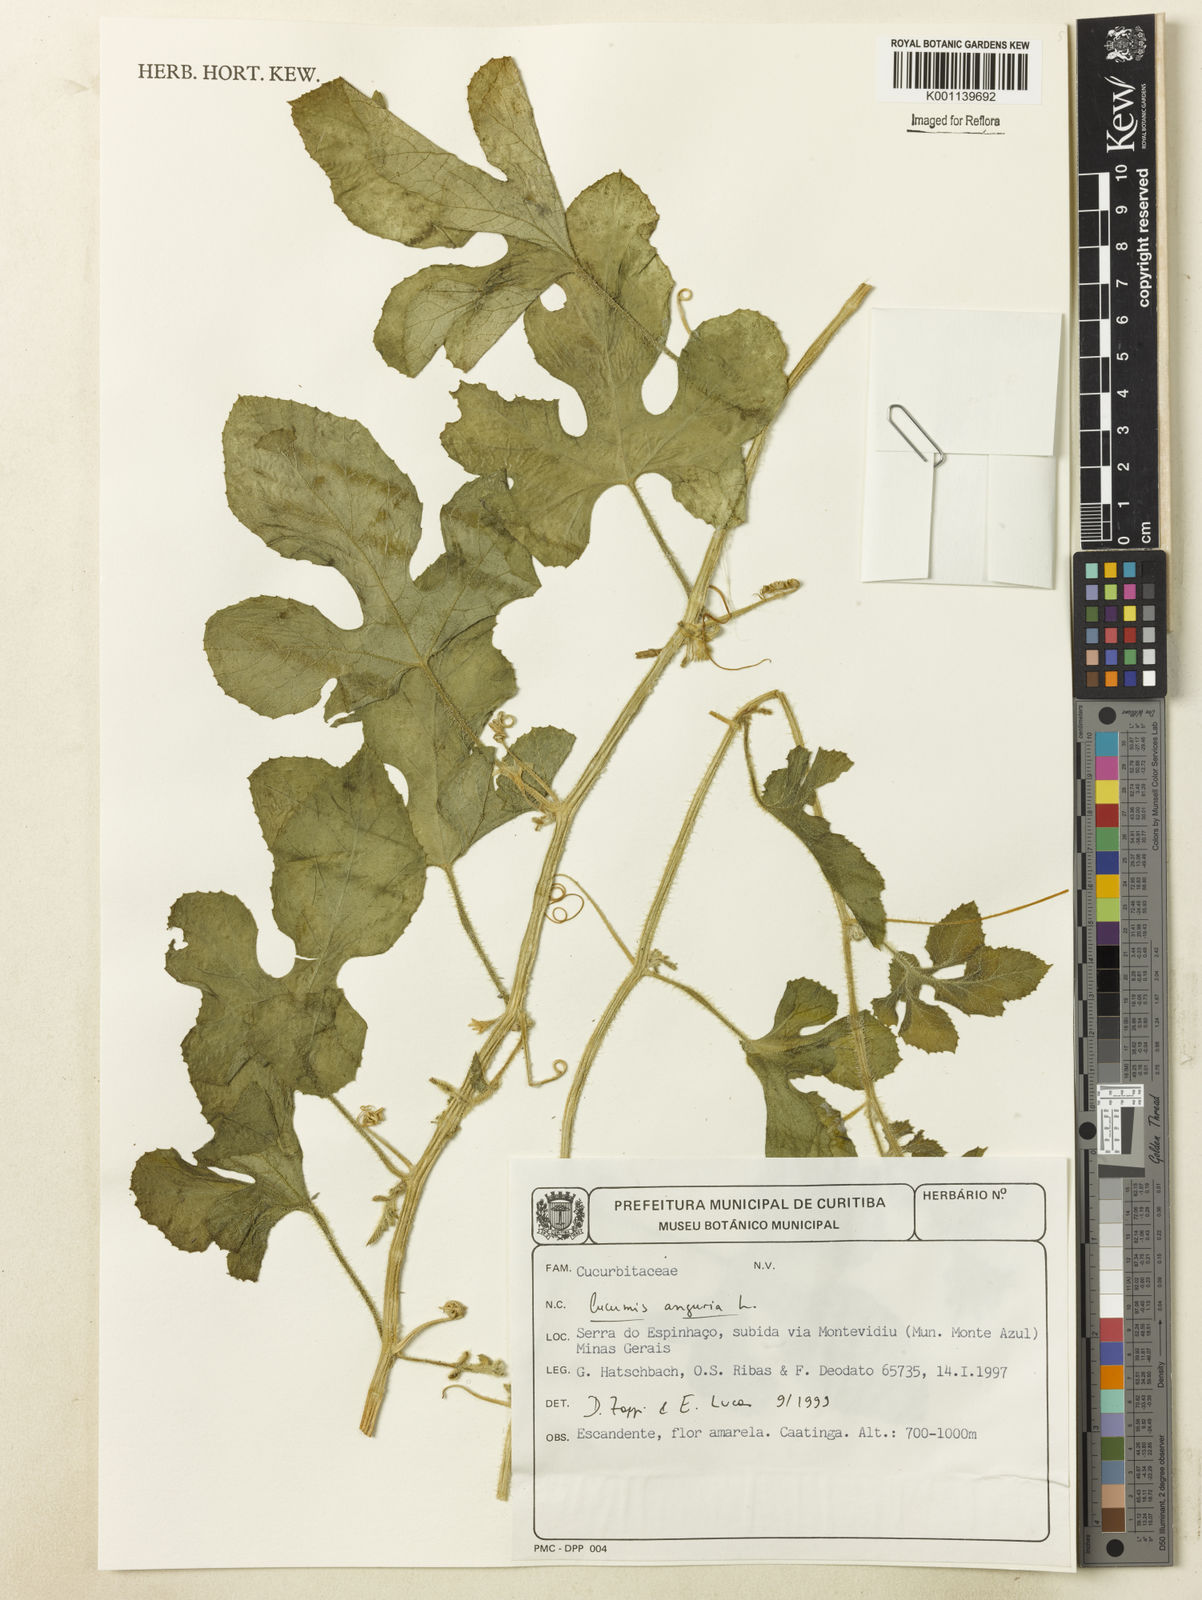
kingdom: Plantae
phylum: Tracheophyta
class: Magnoliopsida
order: Cucurbitales
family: Cucurbitaceae
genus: Cucumis
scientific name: Cucumis anguria
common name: West indian gherkin
